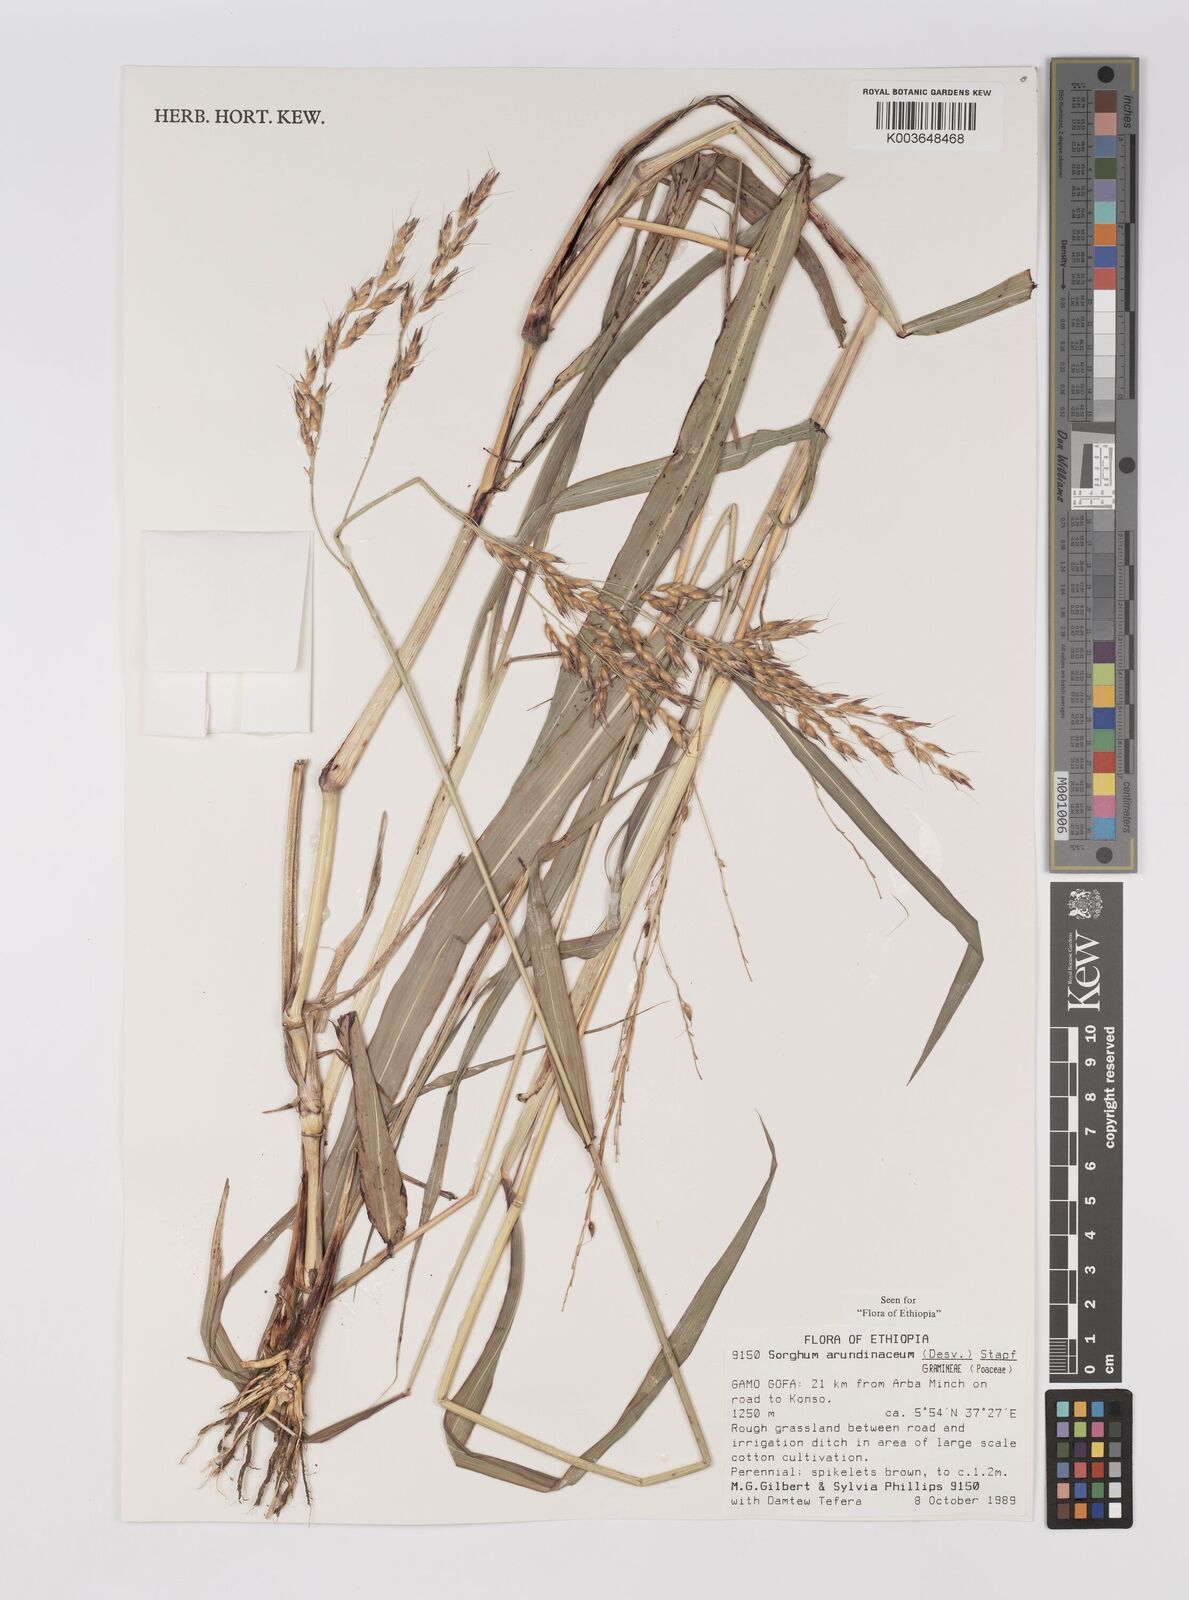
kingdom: Plantae
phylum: Tracheophyta
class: Liliopsida
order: Poales
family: Poaceae
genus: Sorghum
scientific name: Sorghum arundinaceum
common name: Sorghum
